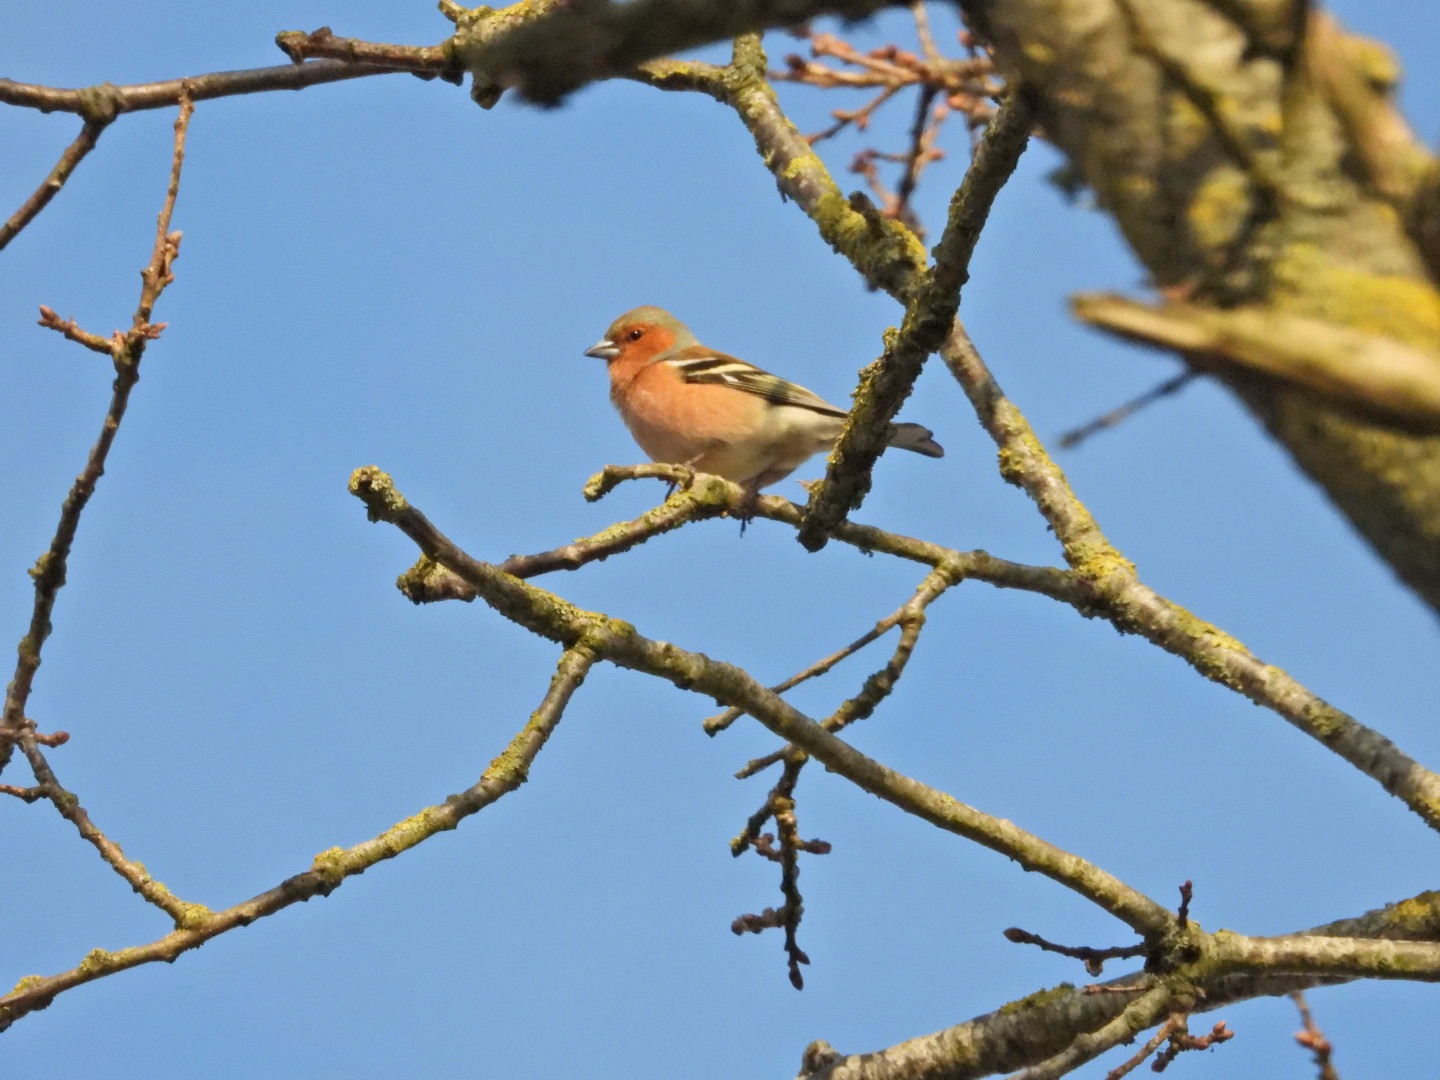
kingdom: Animalia
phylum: Chordata
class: Aves
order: Passeriformes
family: Fringillidae
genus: Fringilla
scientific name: Fringilla coelebs
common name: Bogfinke
